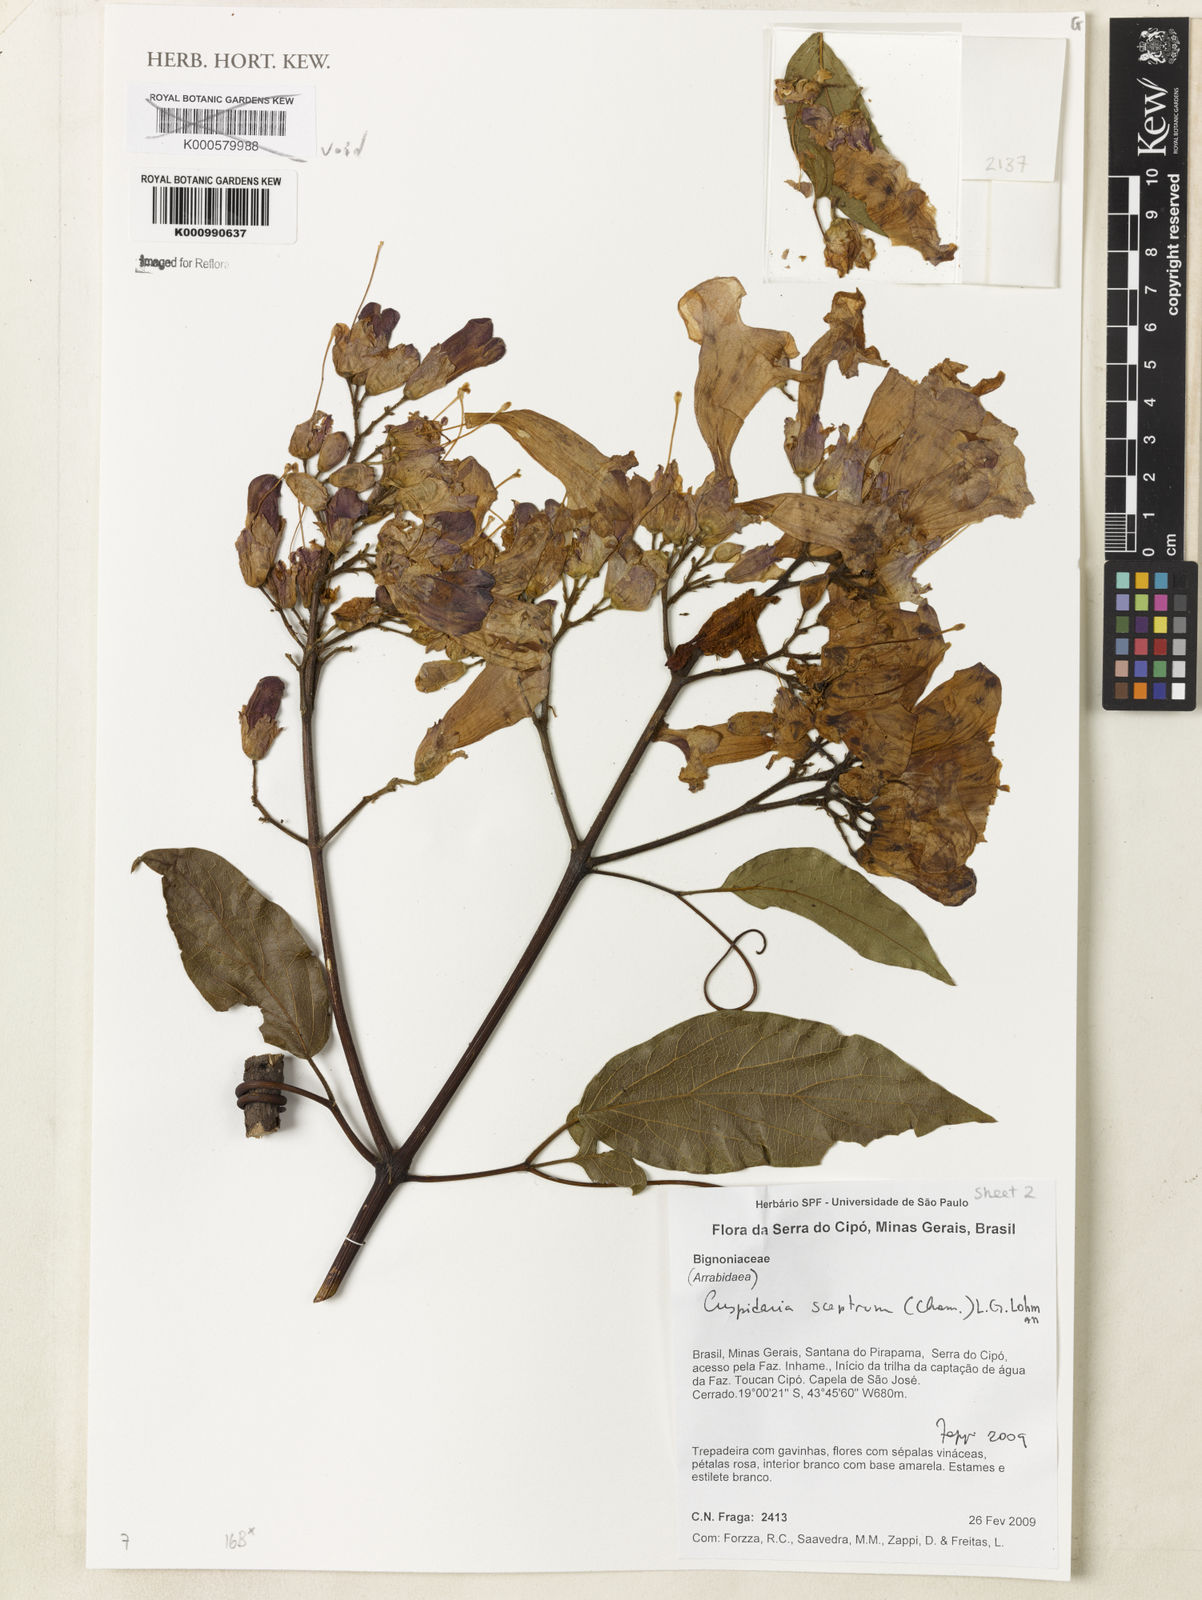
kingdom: Plantae
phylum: Tracheophyta
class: Magnoliopsida
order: Lamiales
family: Bignoniaceae
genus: Cuspidaria
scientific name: Cuspidaria sceptrum
